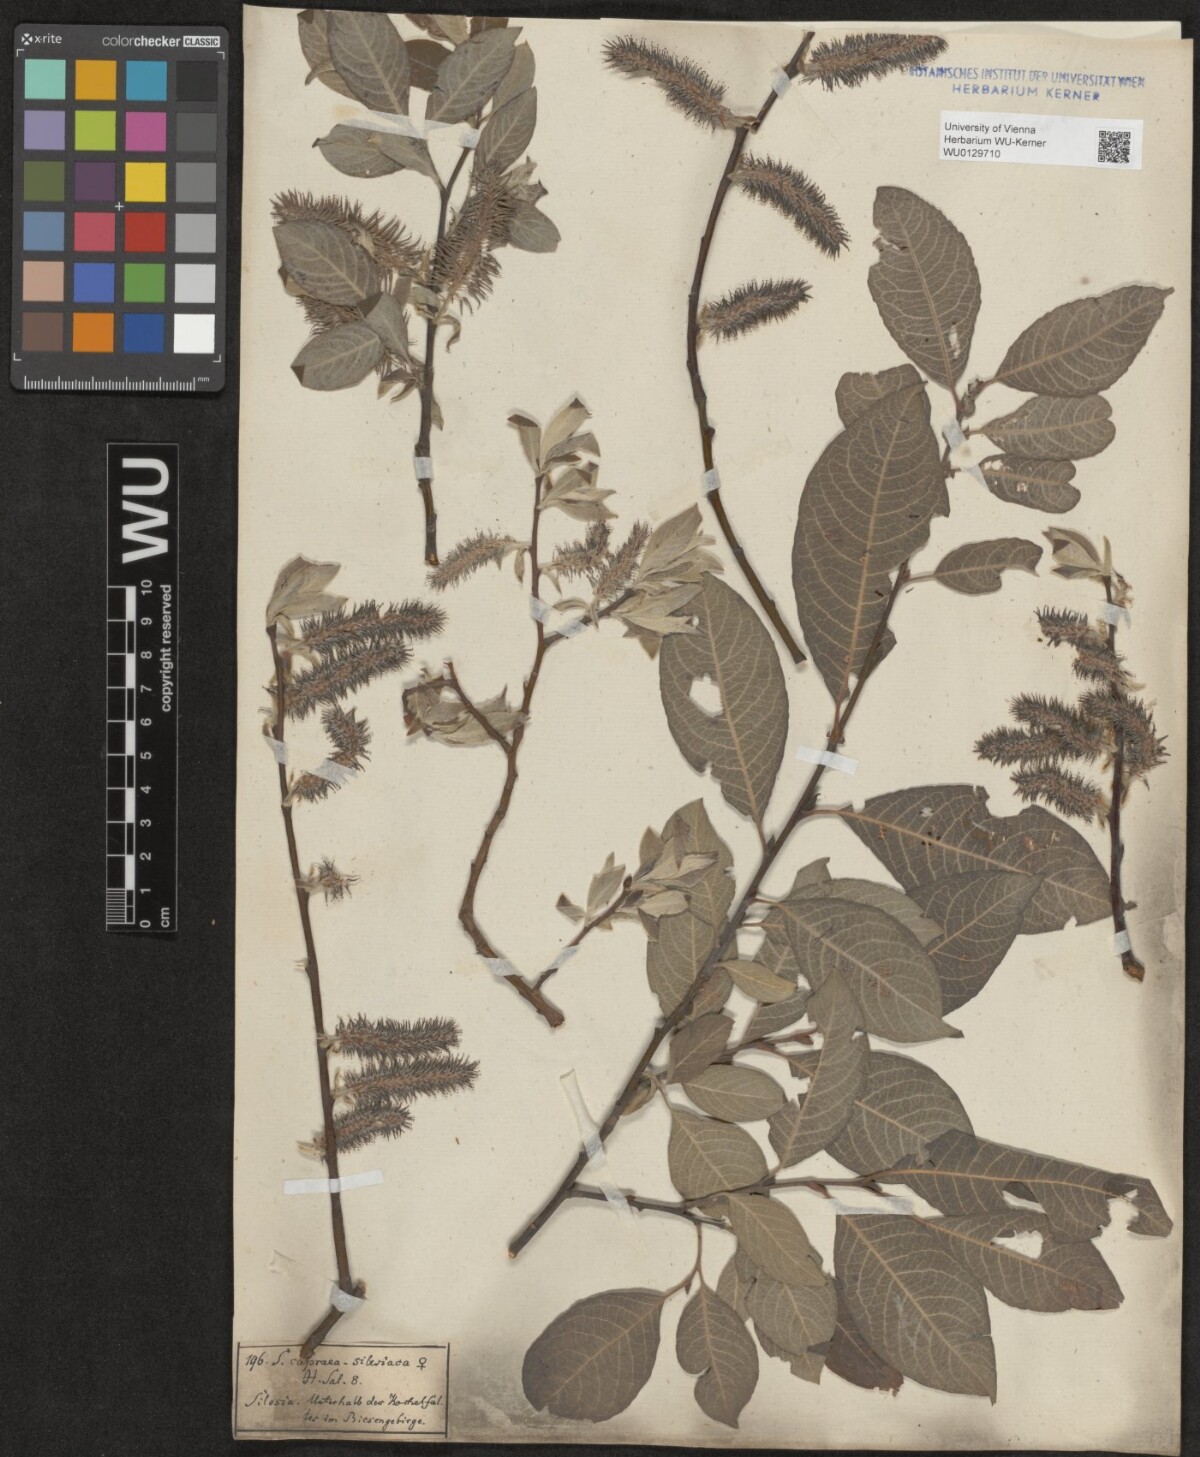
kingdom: Plantae
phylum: Tracheophyta
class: Magnoliopsida
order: Malpighiales
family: Salicaceae
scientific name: Salicaceae
